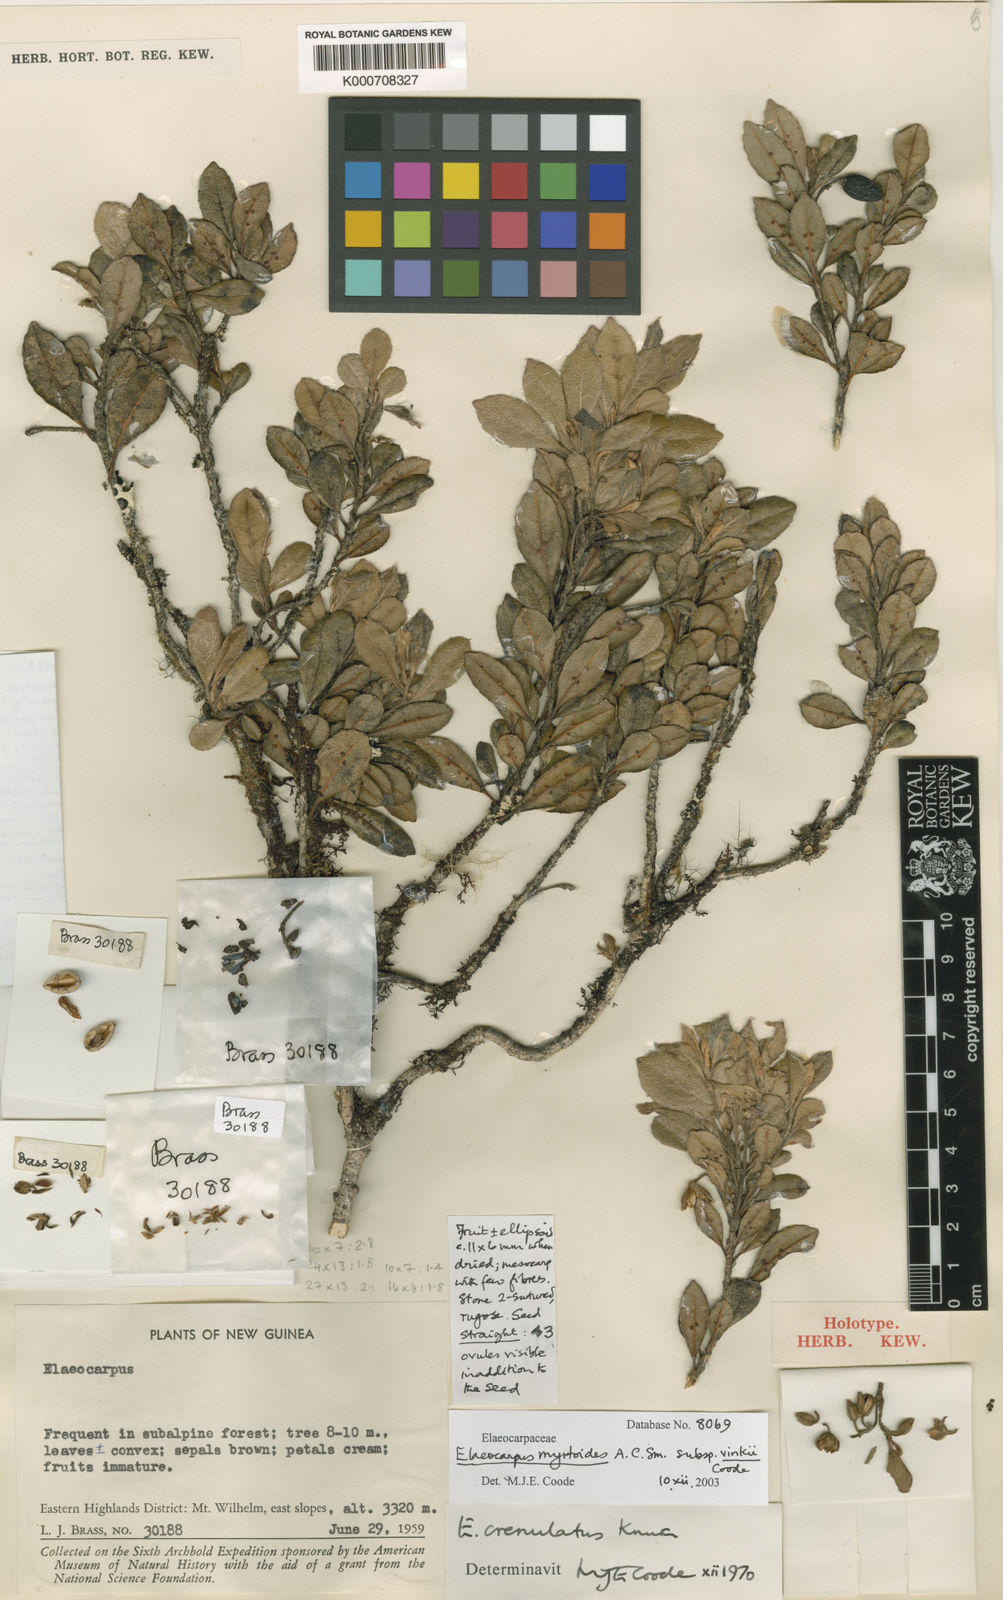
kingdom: Plantae
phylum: Tracheophyta
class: Magnoliopsida
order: Oxalidales
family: Elaeocarpaceae
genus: Elaeocarpus
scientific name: Elaeocarpus myrtoides
